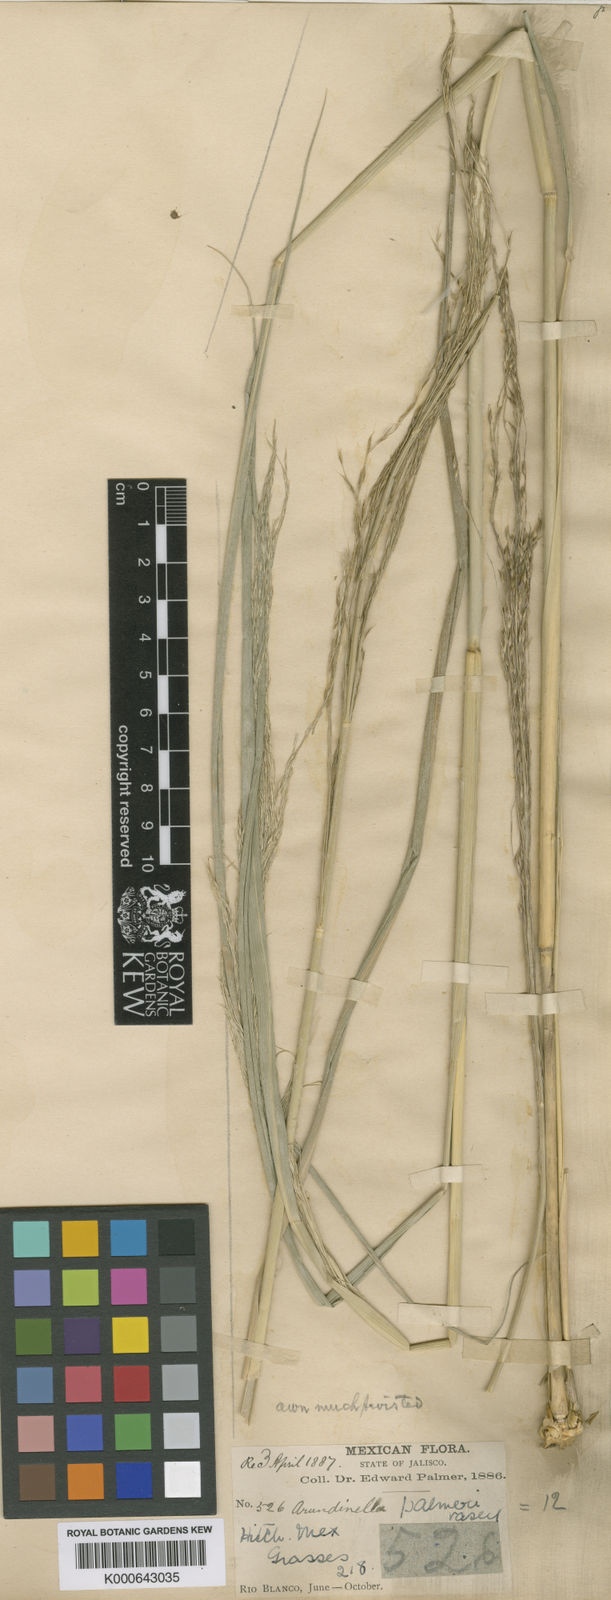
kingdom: Plantae
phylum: Tracheophyta
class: Liliopsida
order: Poales
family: Poaceae
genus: Arundinella
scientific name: Arundinella
